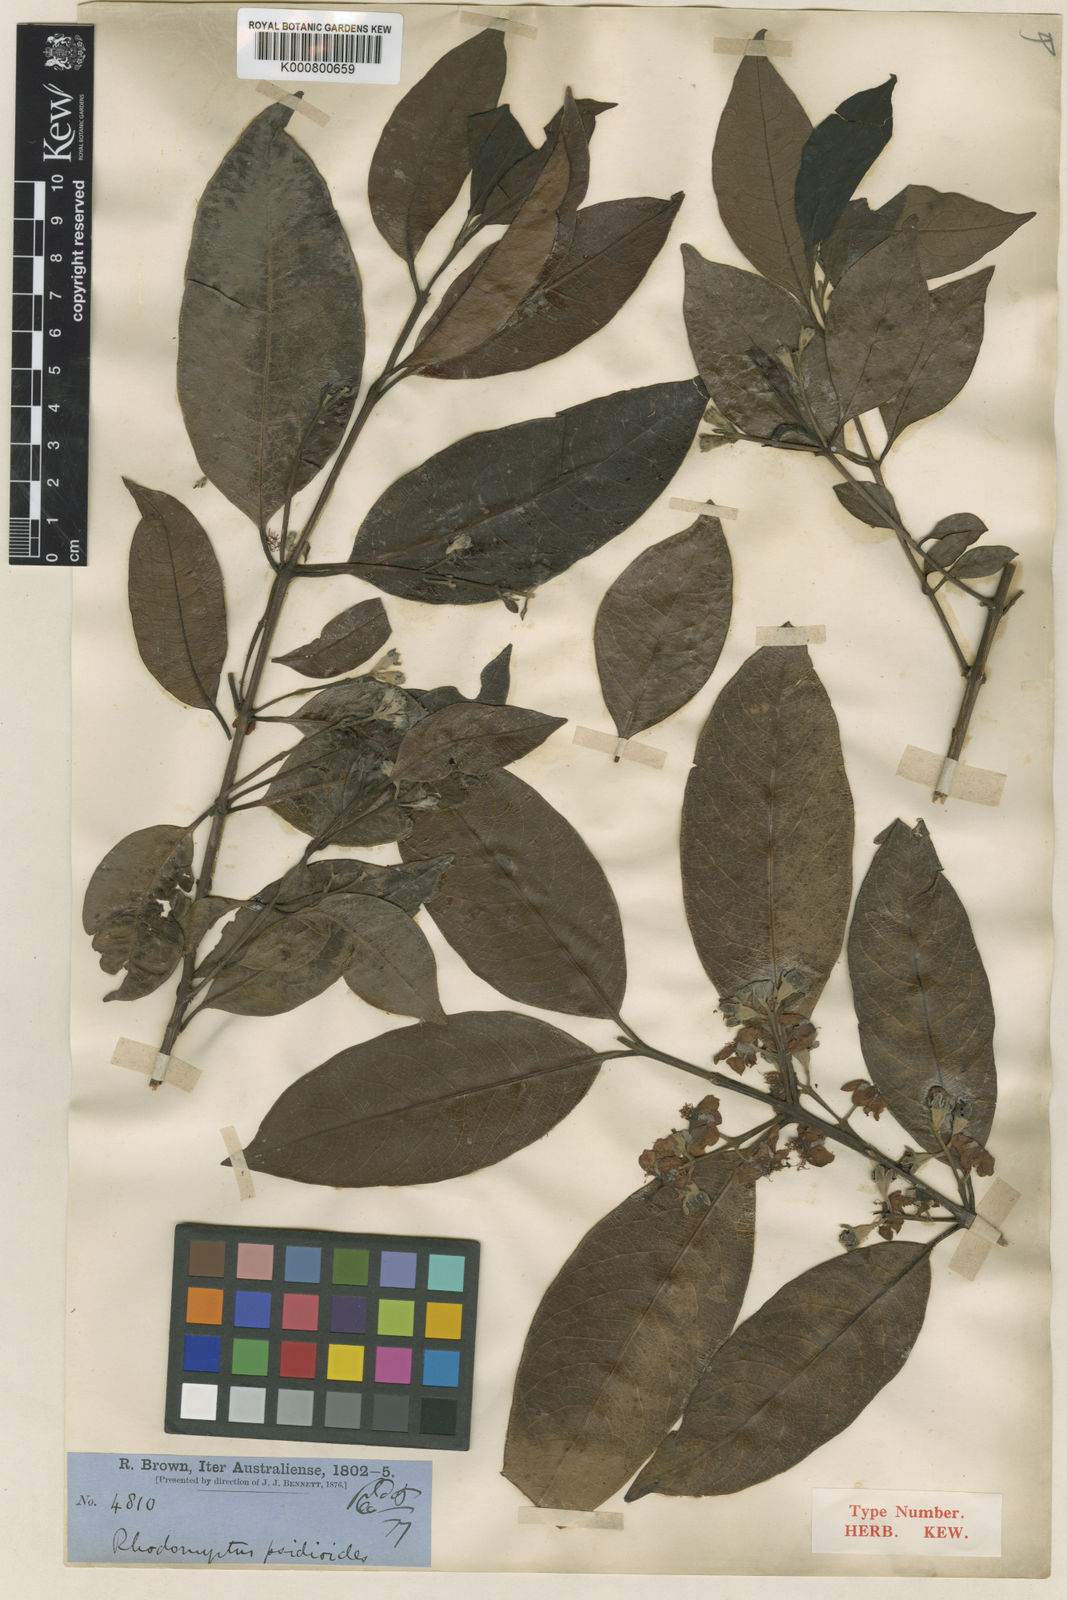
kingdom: Plantae
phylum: Tracheophyta
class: Magnoliopsida
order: Myrtales
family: Myrtaceae
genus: Rhodomyrtus
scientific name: Rhodomyrtus psidioides
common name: Native-guava
